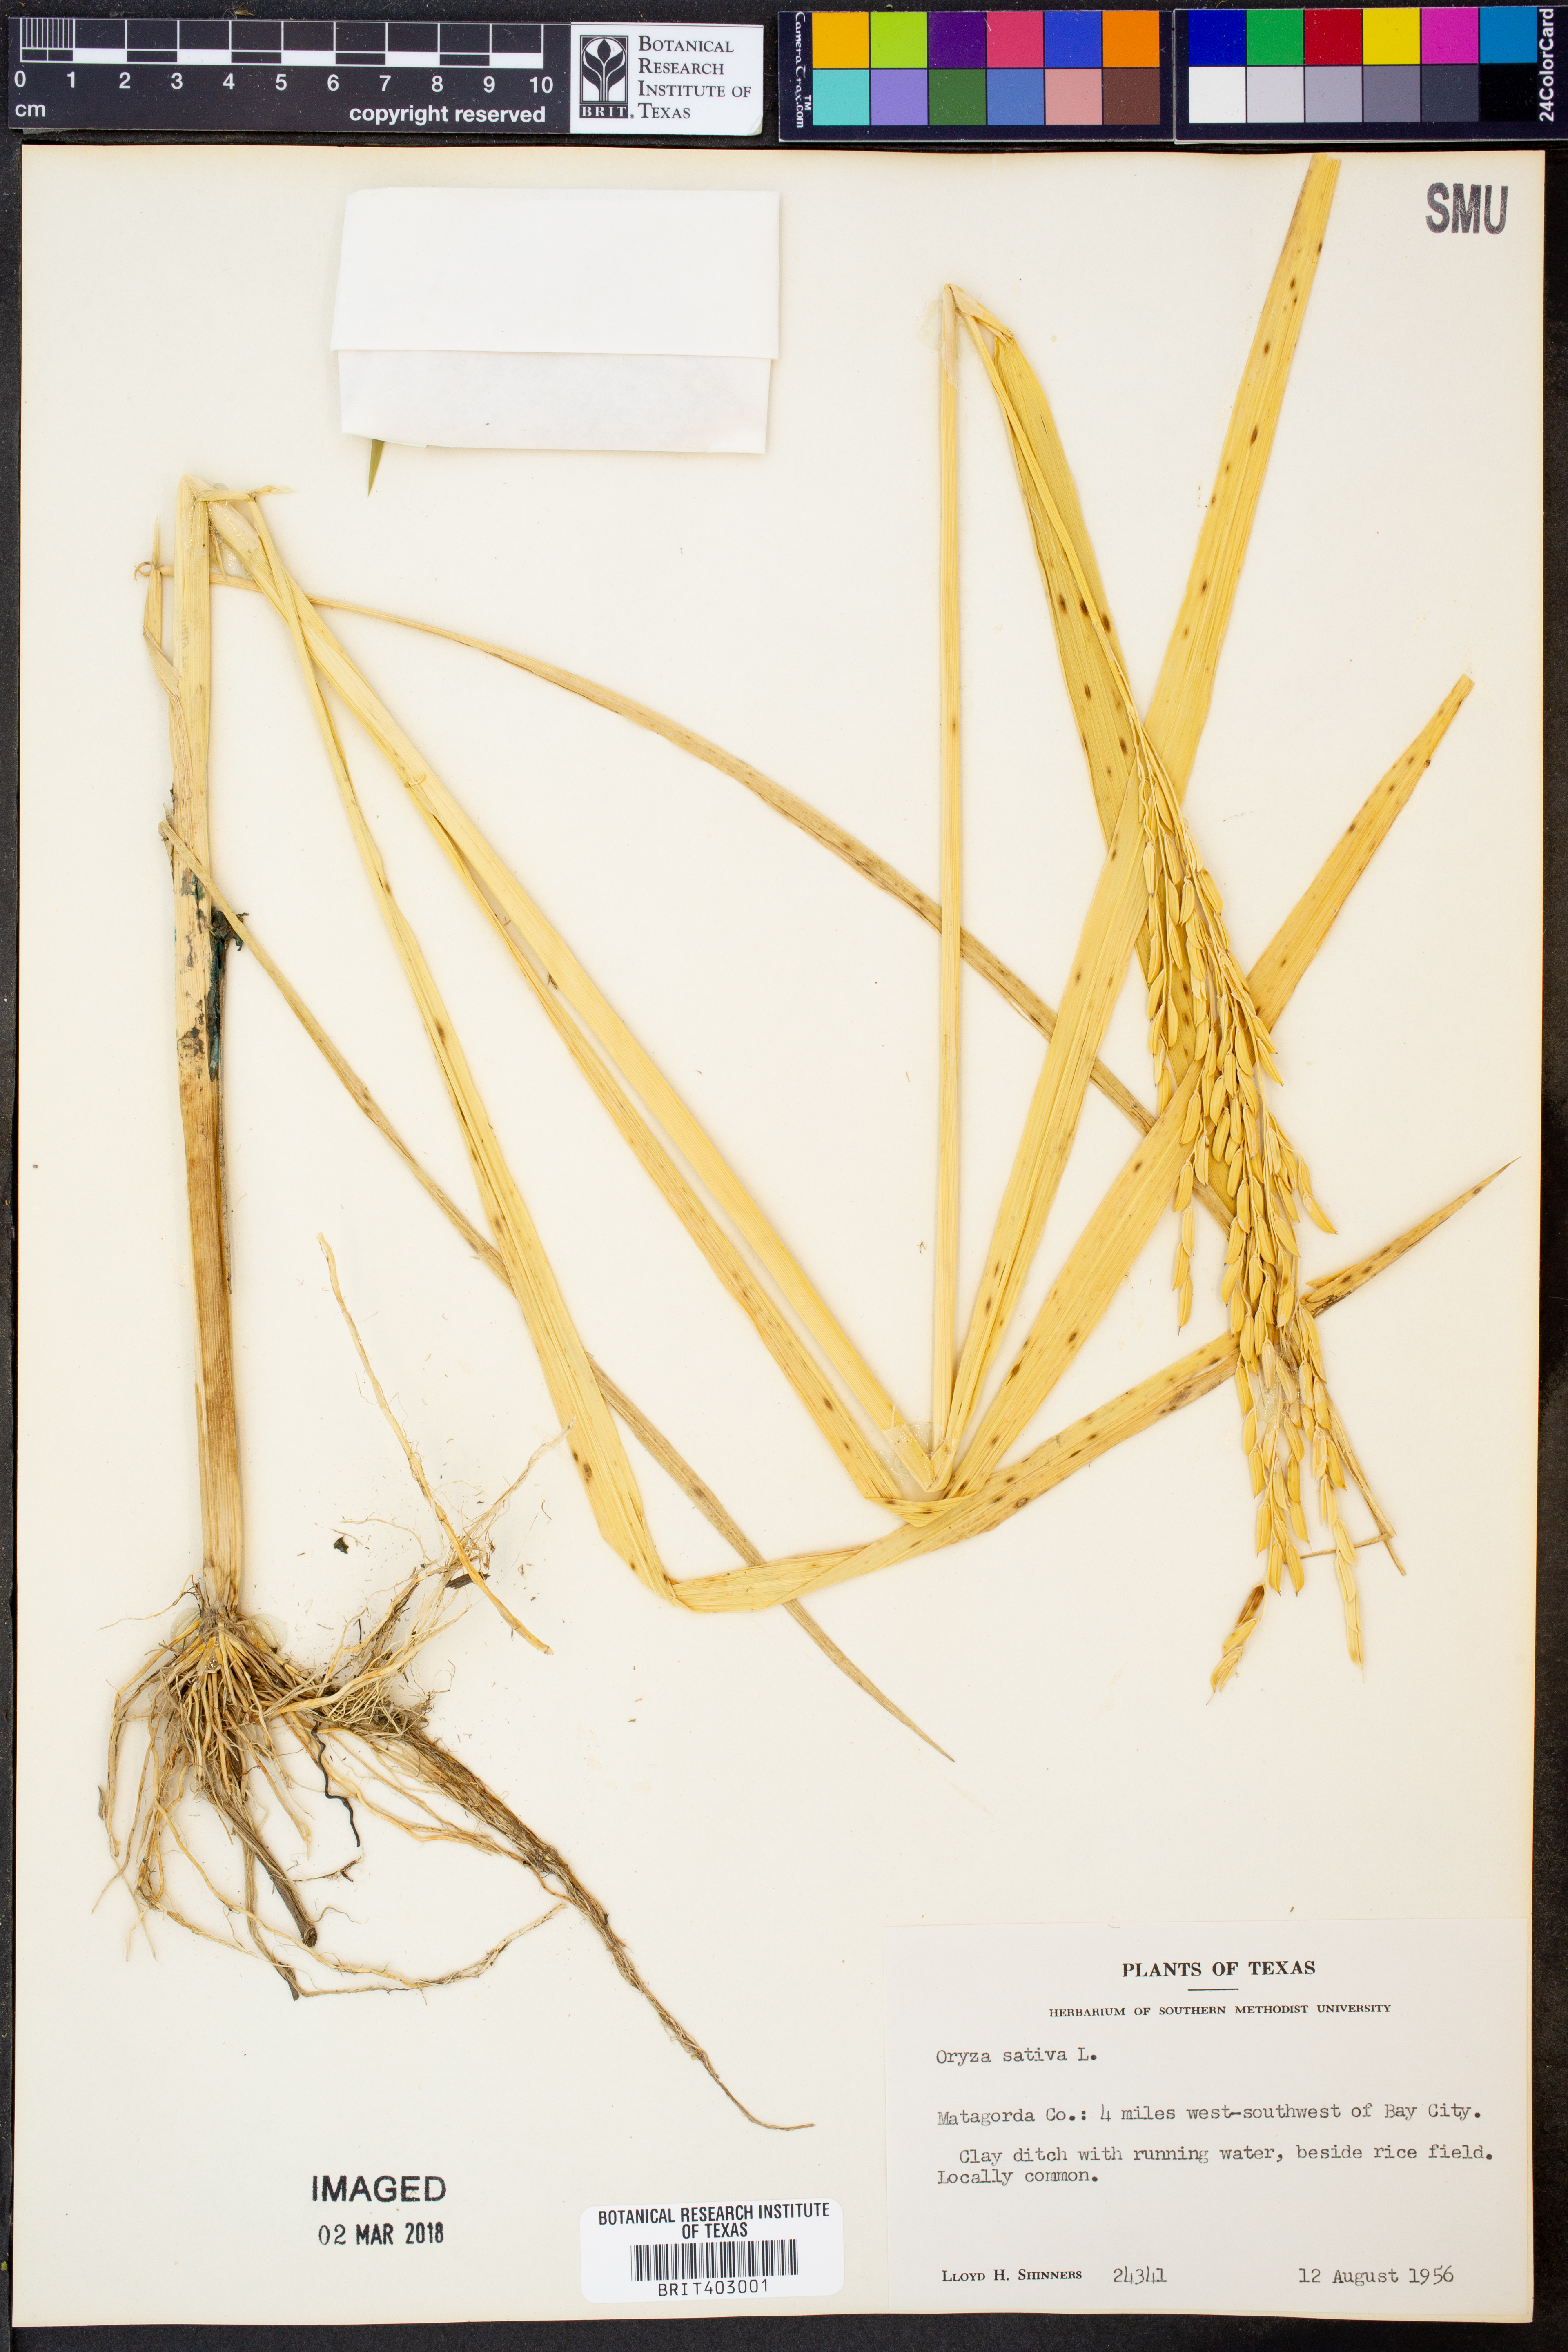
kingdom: Plantae
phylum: Tracheophyta
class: Liliopsida
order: Poales
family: Poaceae
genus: Oryza
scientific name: Oryza sativa
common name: Rice
